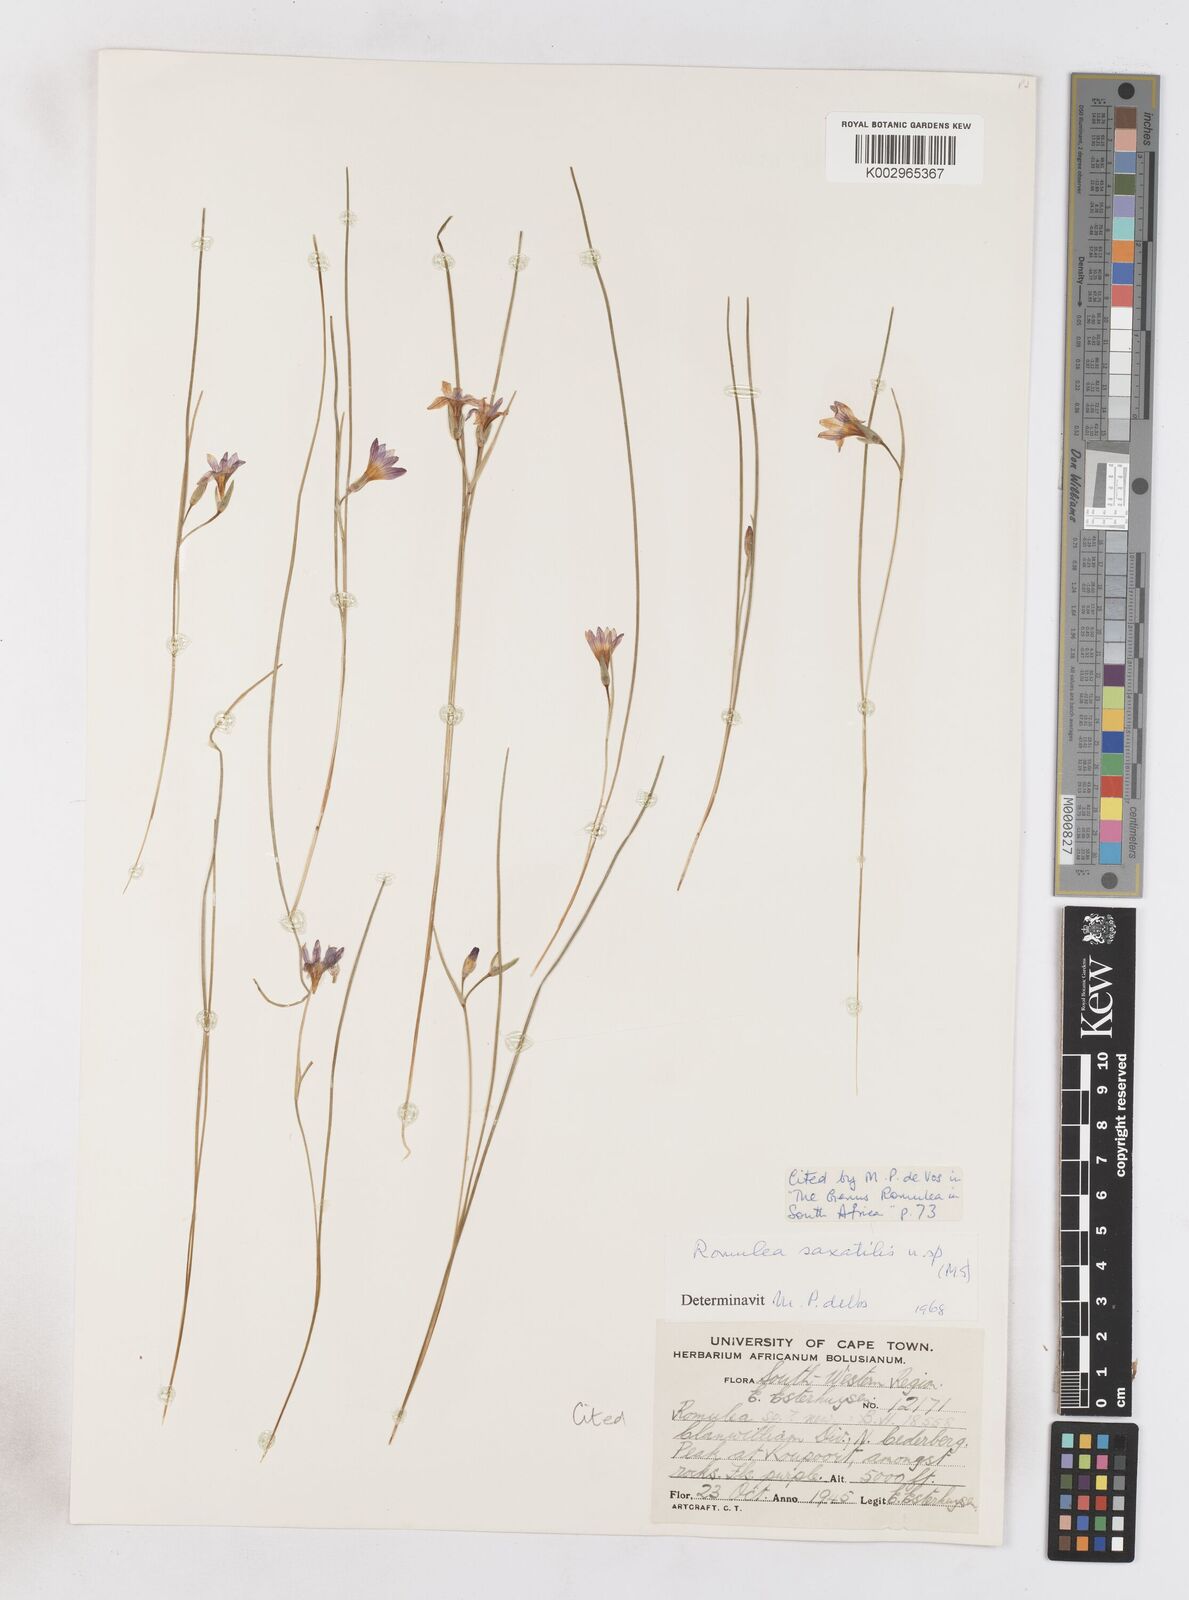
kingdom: Plantae
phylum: Tracheophyta
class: Liliopsida
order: Asparagales
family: Iridaceae
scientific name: Iridaceae
